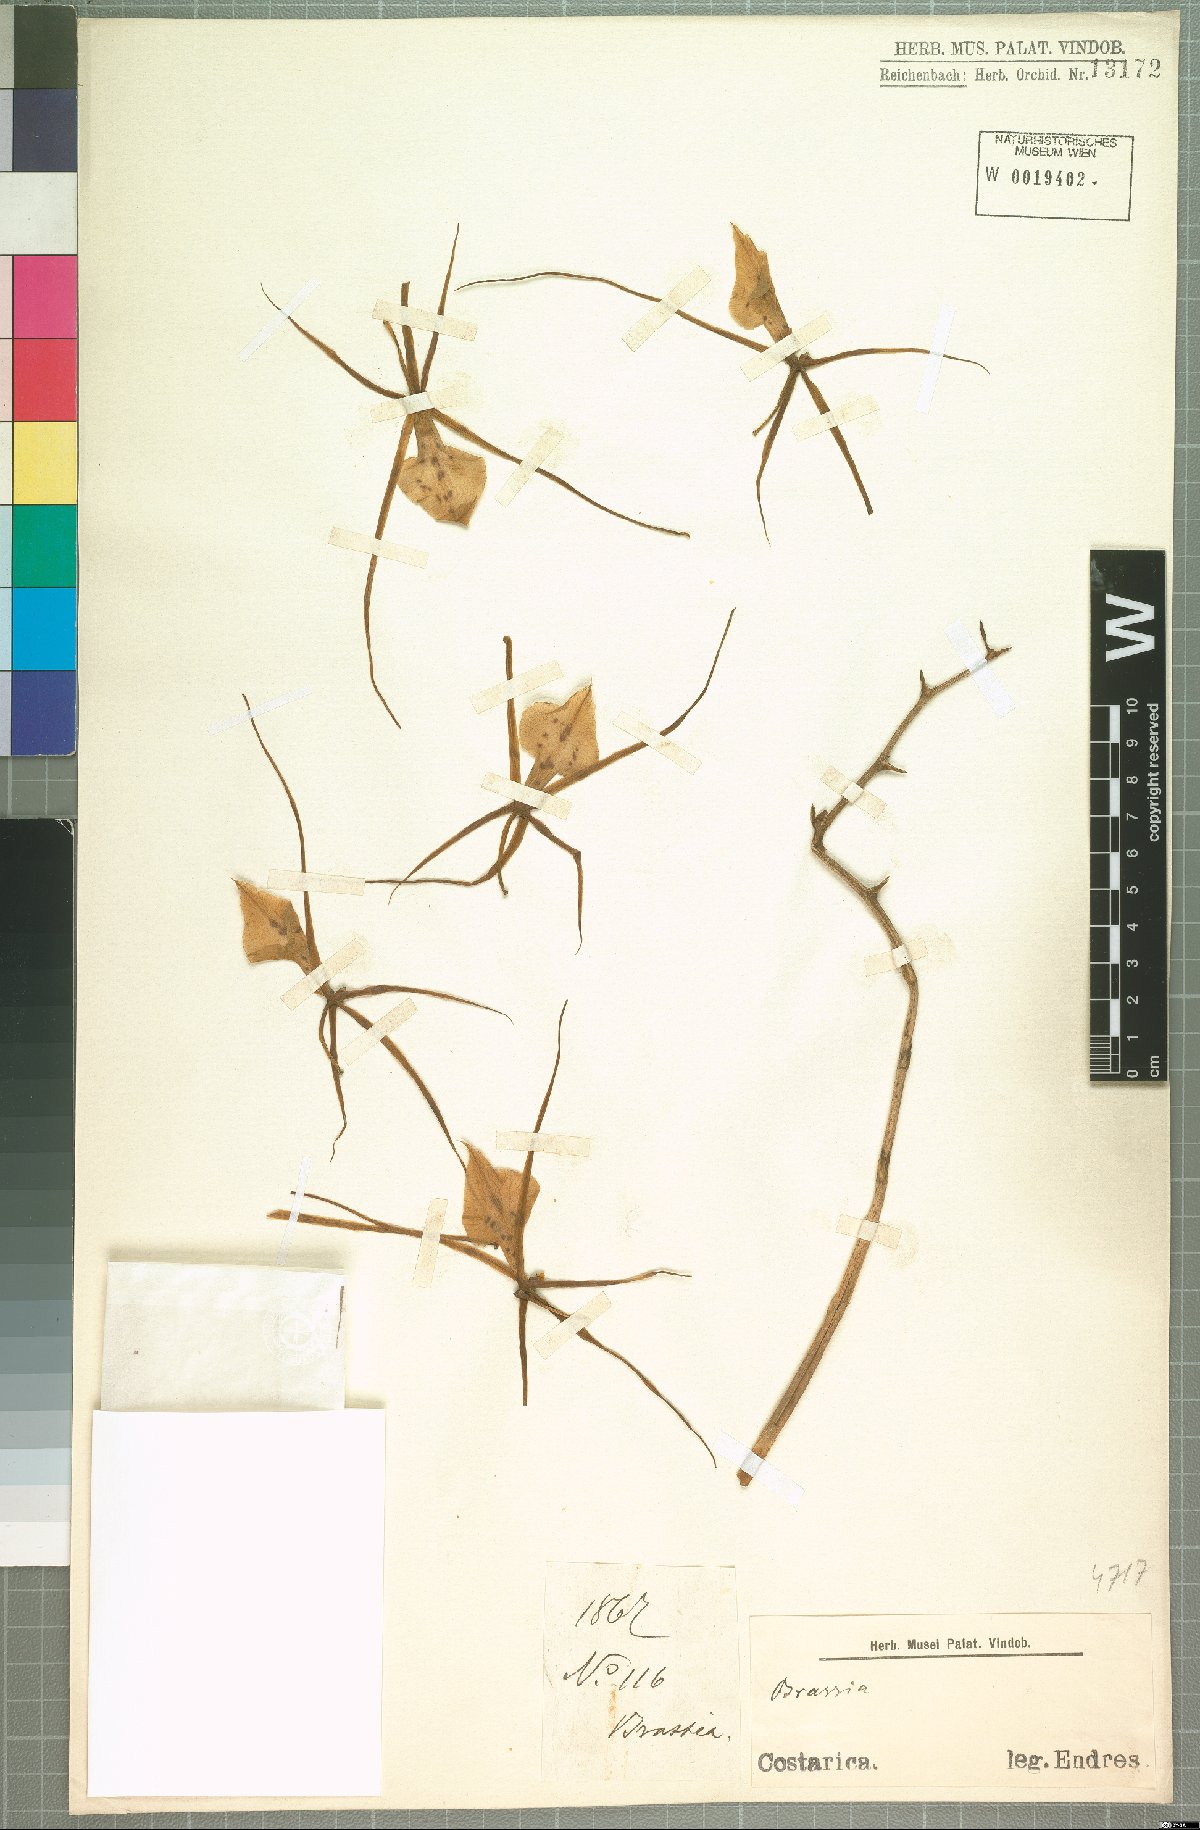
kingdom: Plantae
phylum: Tracheophyta
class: Liliopsida
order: Asparagales
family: Orchidaceae
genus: Brassia
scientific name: Brassia
